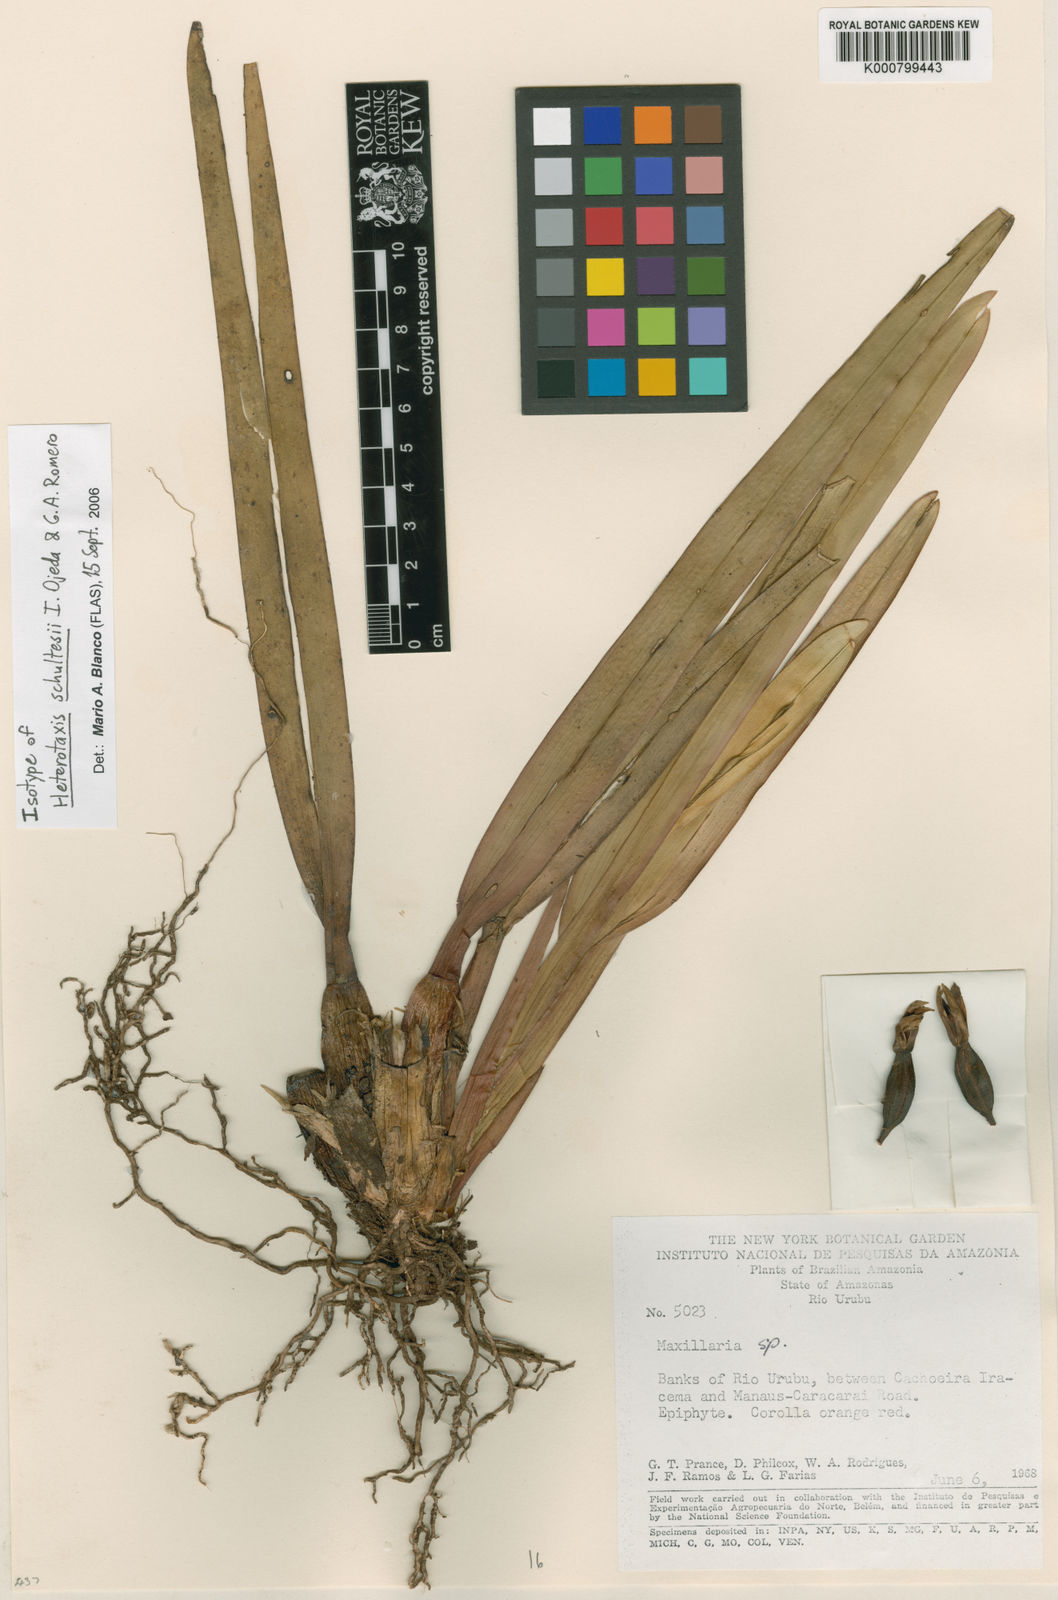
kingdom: Plantae
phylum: Tracheophyta
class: Liliopsida
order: Asparagales
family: Orchidaceae
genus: Maxillaria
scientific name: Maxillaria schultesii
